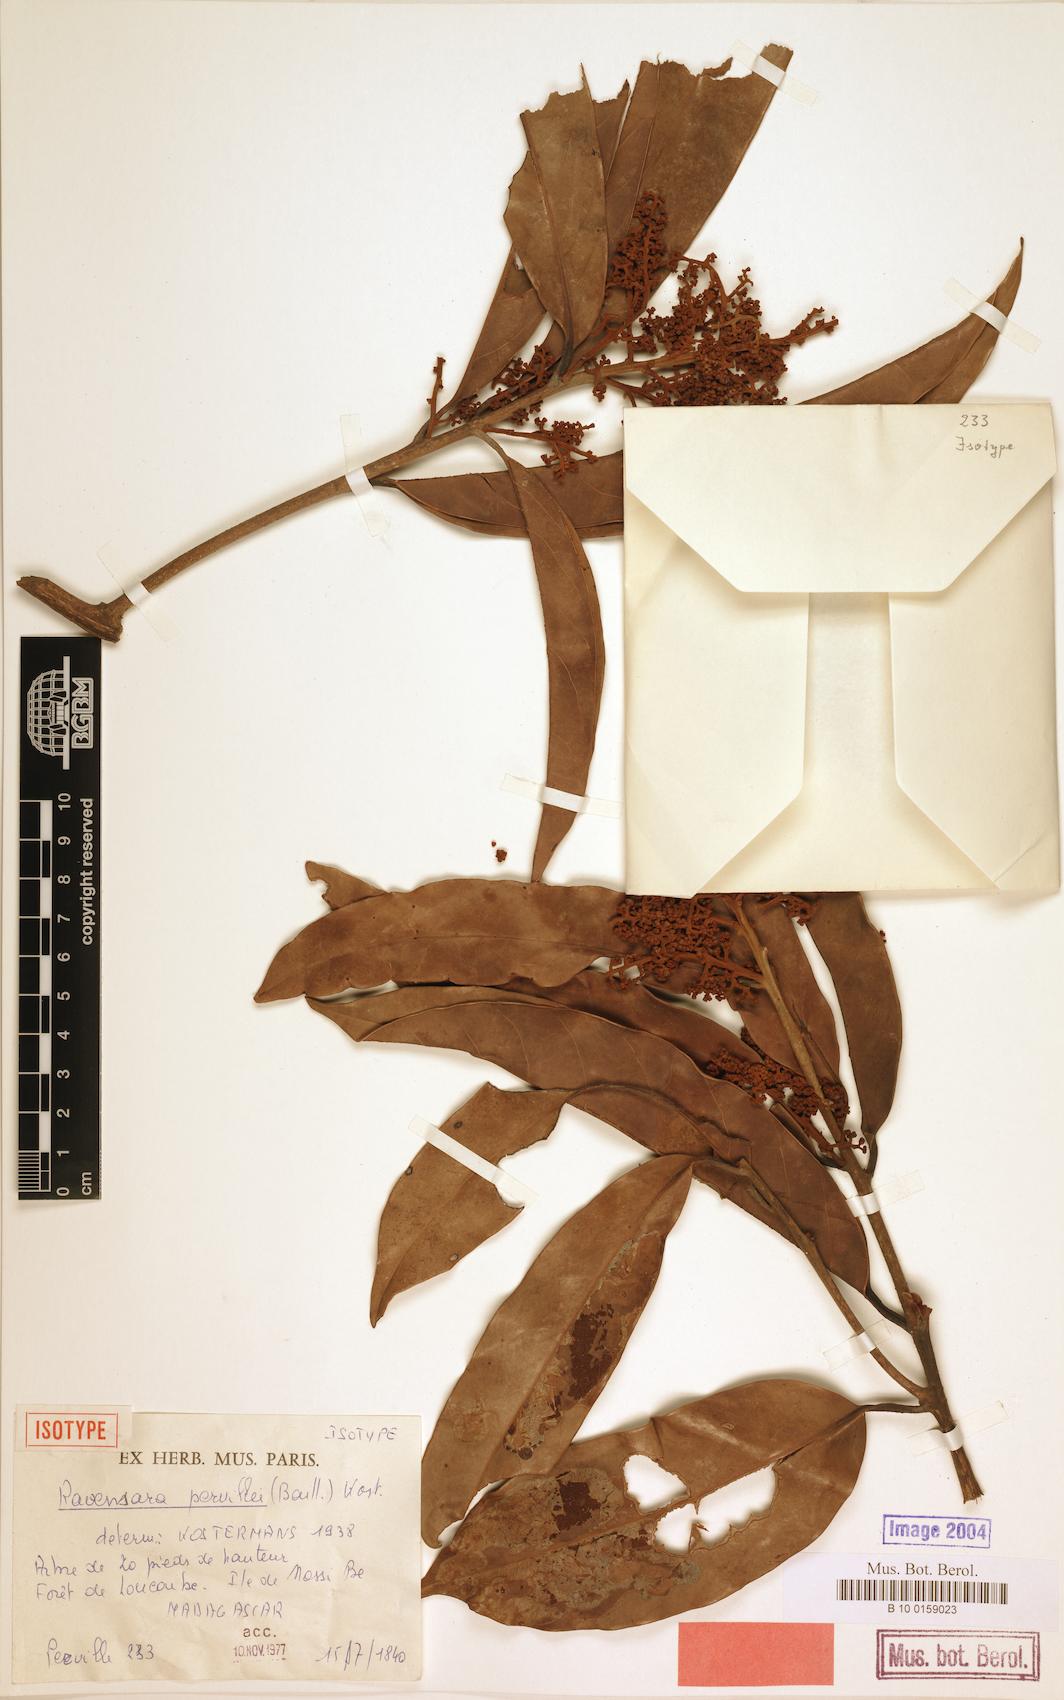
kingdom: Plantae
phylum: Tracheophyta
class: Magnoliopsida
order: Laurales
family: Lauraceae
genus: Cryptocarya
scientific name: Cryptocarya pervillei
